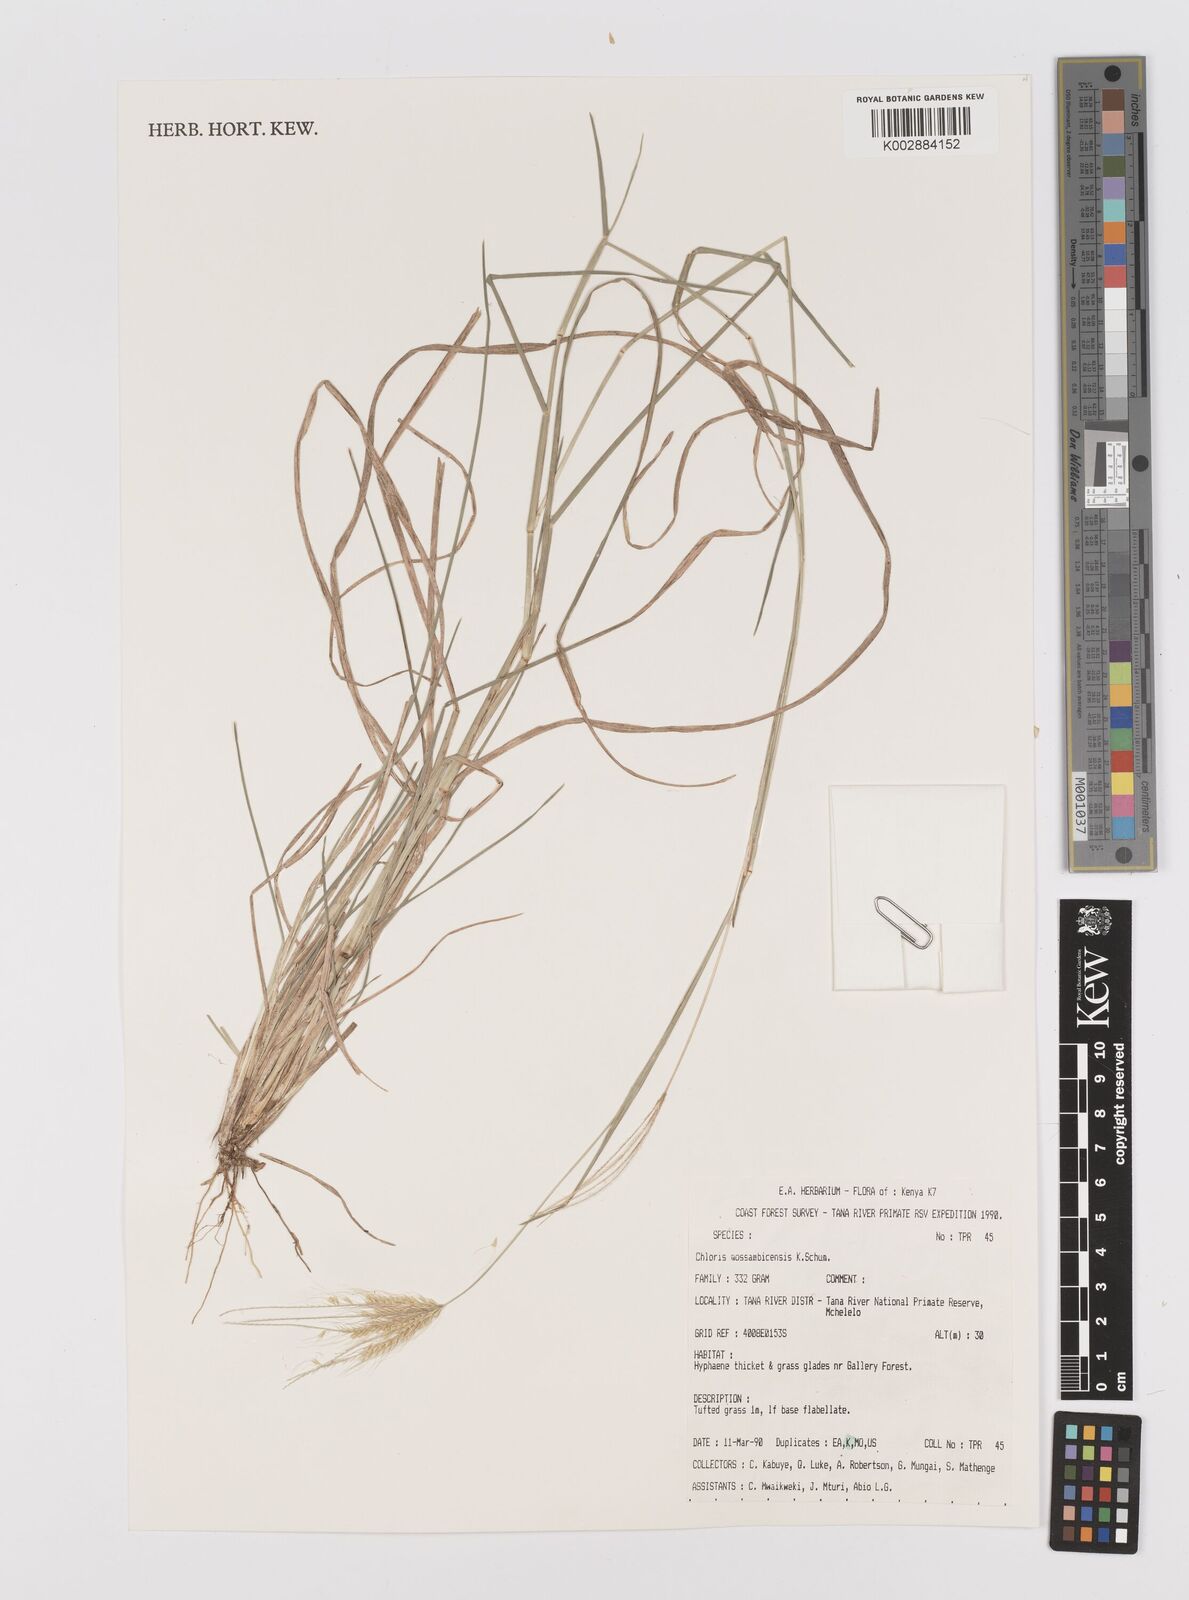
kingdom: Plantae
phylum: Tracheophyta
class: Liliopsida
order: Poales
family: Poaceae
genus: Chloris
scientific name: Chloris mossambicensis
